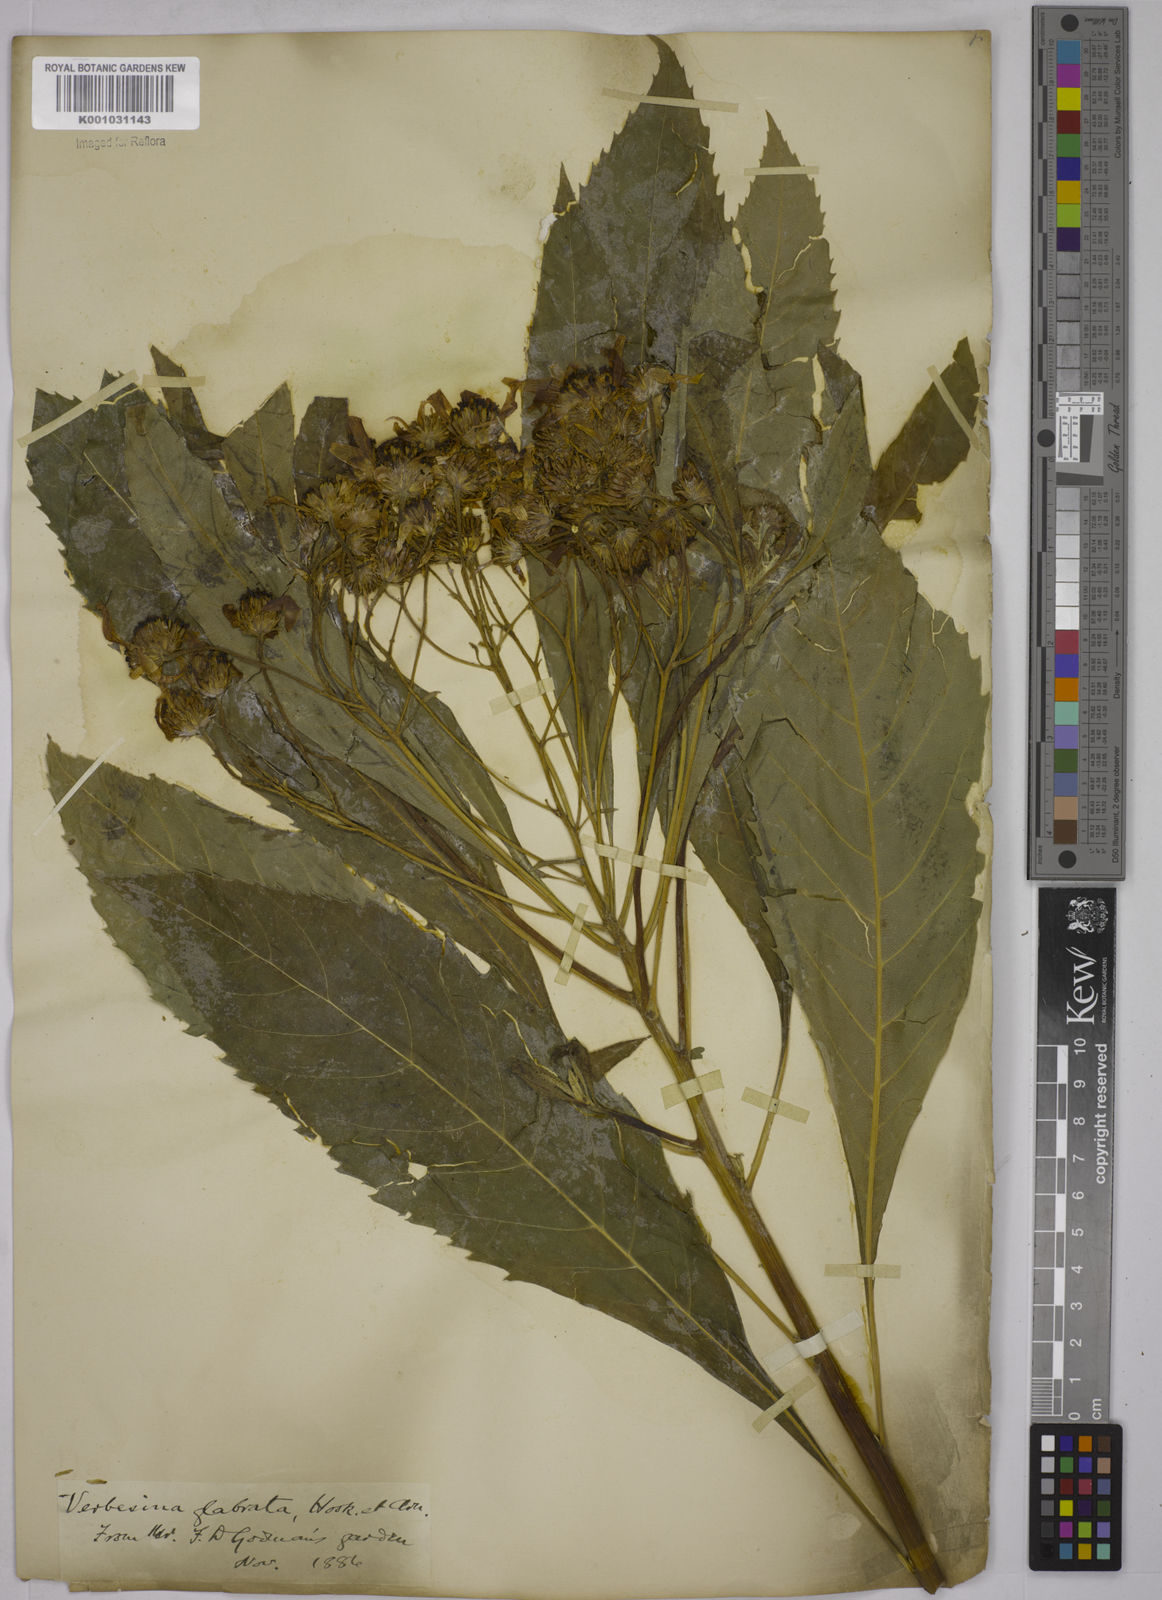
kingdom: Plantae
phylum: Tracheophyta
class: Magnoliopsida
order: Asterales
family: Asteraceae
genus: Verbesina
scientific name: Verbesina glabrata
